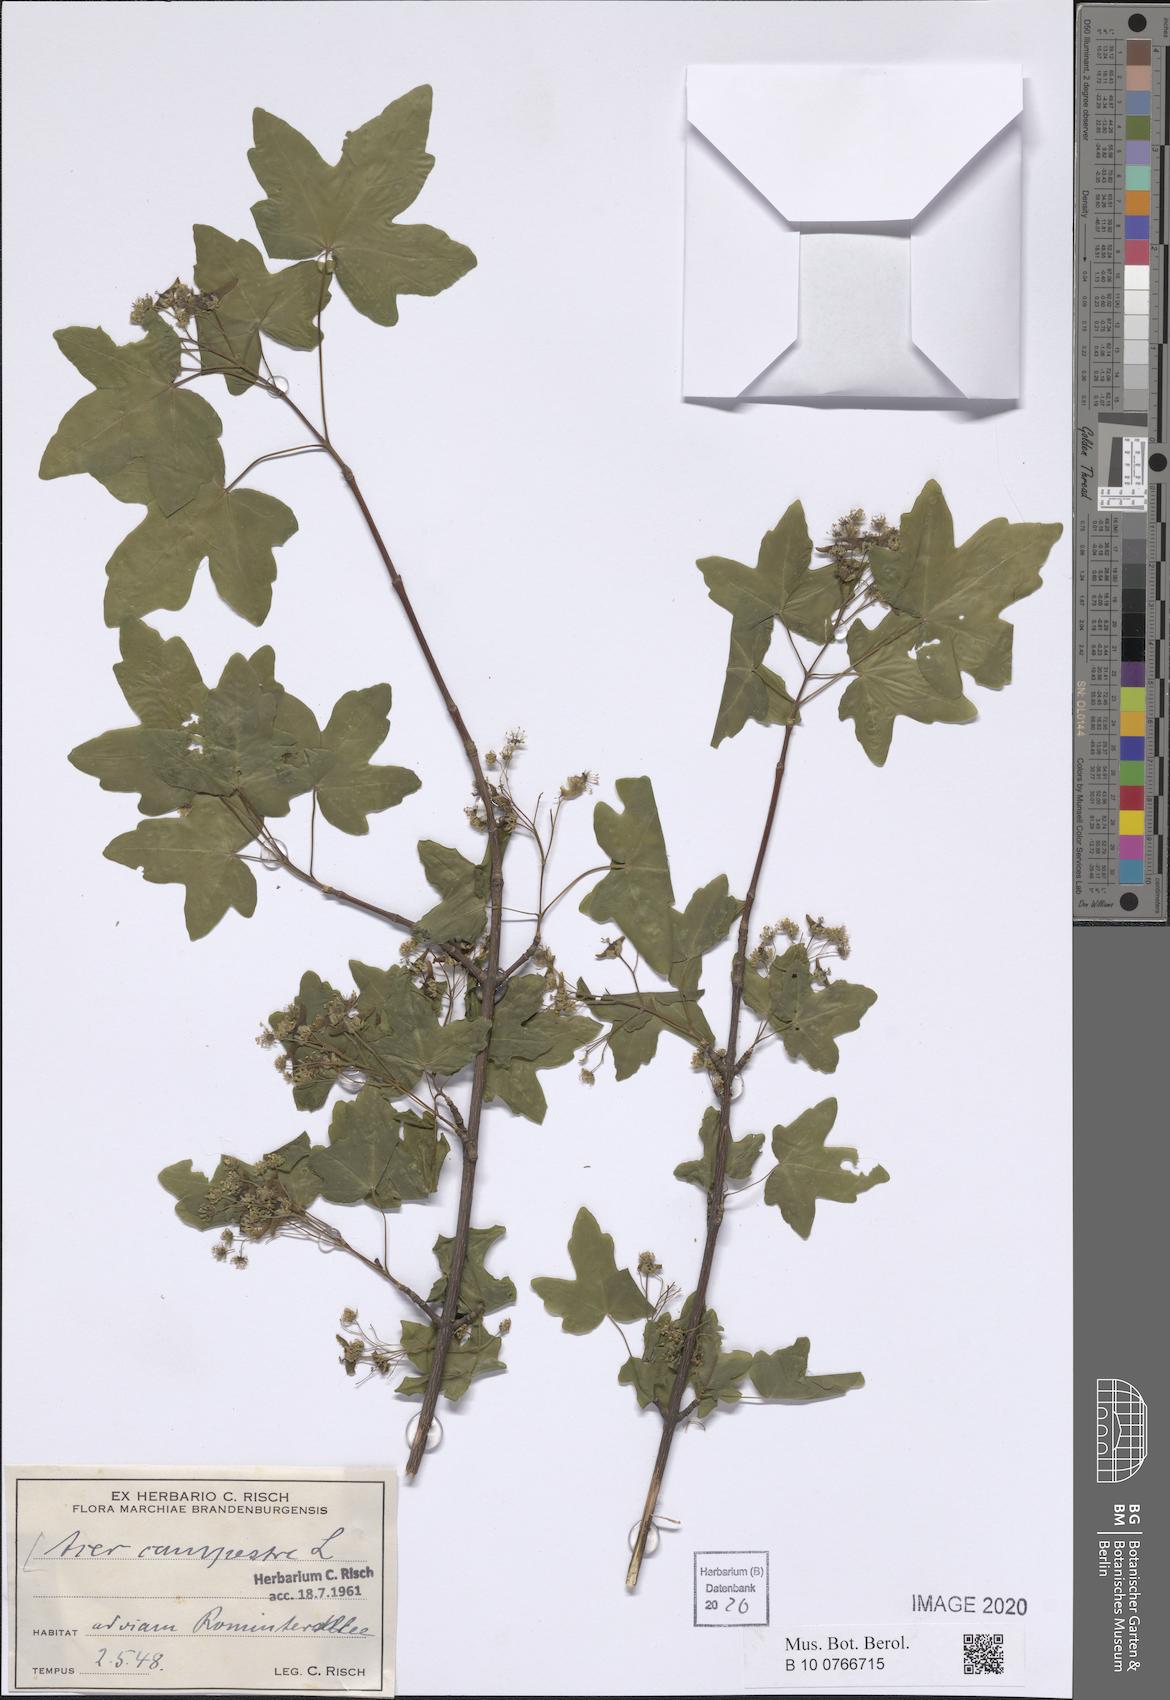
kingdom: Plantae
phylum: Tracheophyta
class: Magnoliopsida
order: Sapindales
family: Sapindaceae
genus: Acer
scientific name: Acer campestre
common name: Field maple
